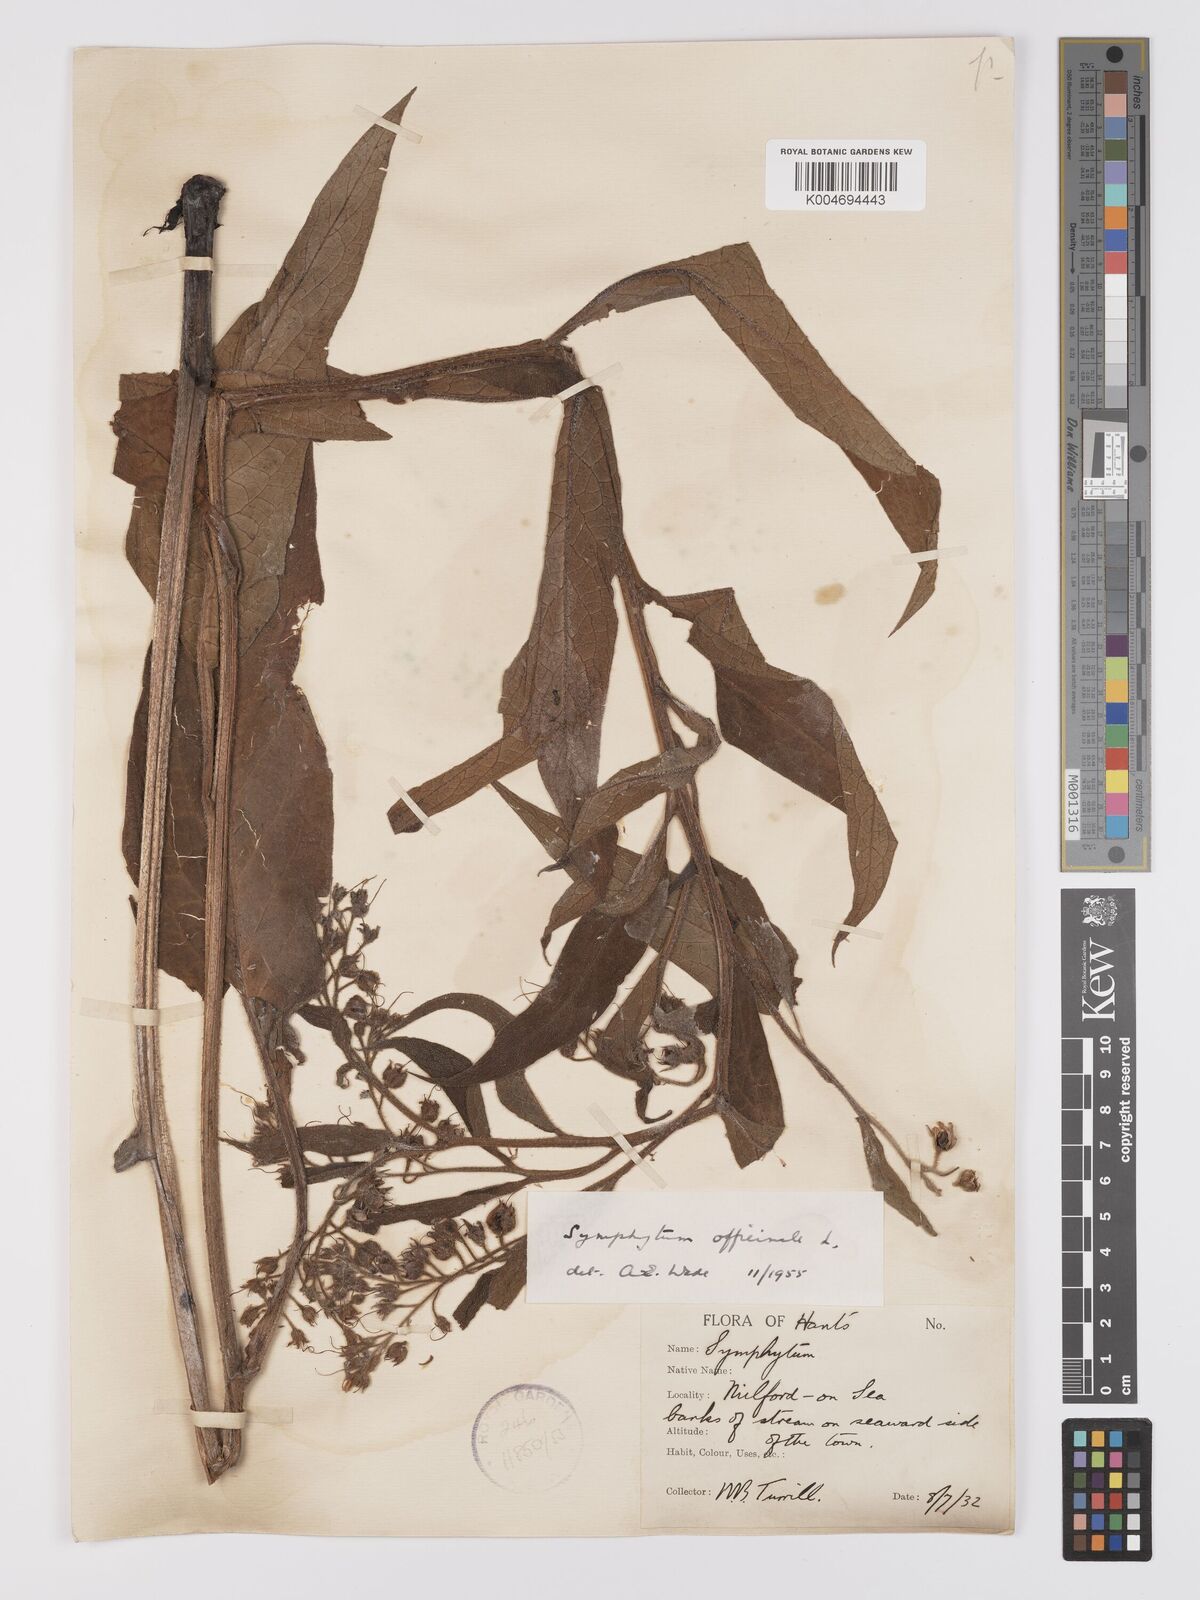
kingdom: Plantae
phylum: Tracheophyta
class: Magnoliopsida
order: Boraginales
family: Boraginaceae
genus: Symphytum
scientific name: Symphytum officinale
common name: Common comfrey
